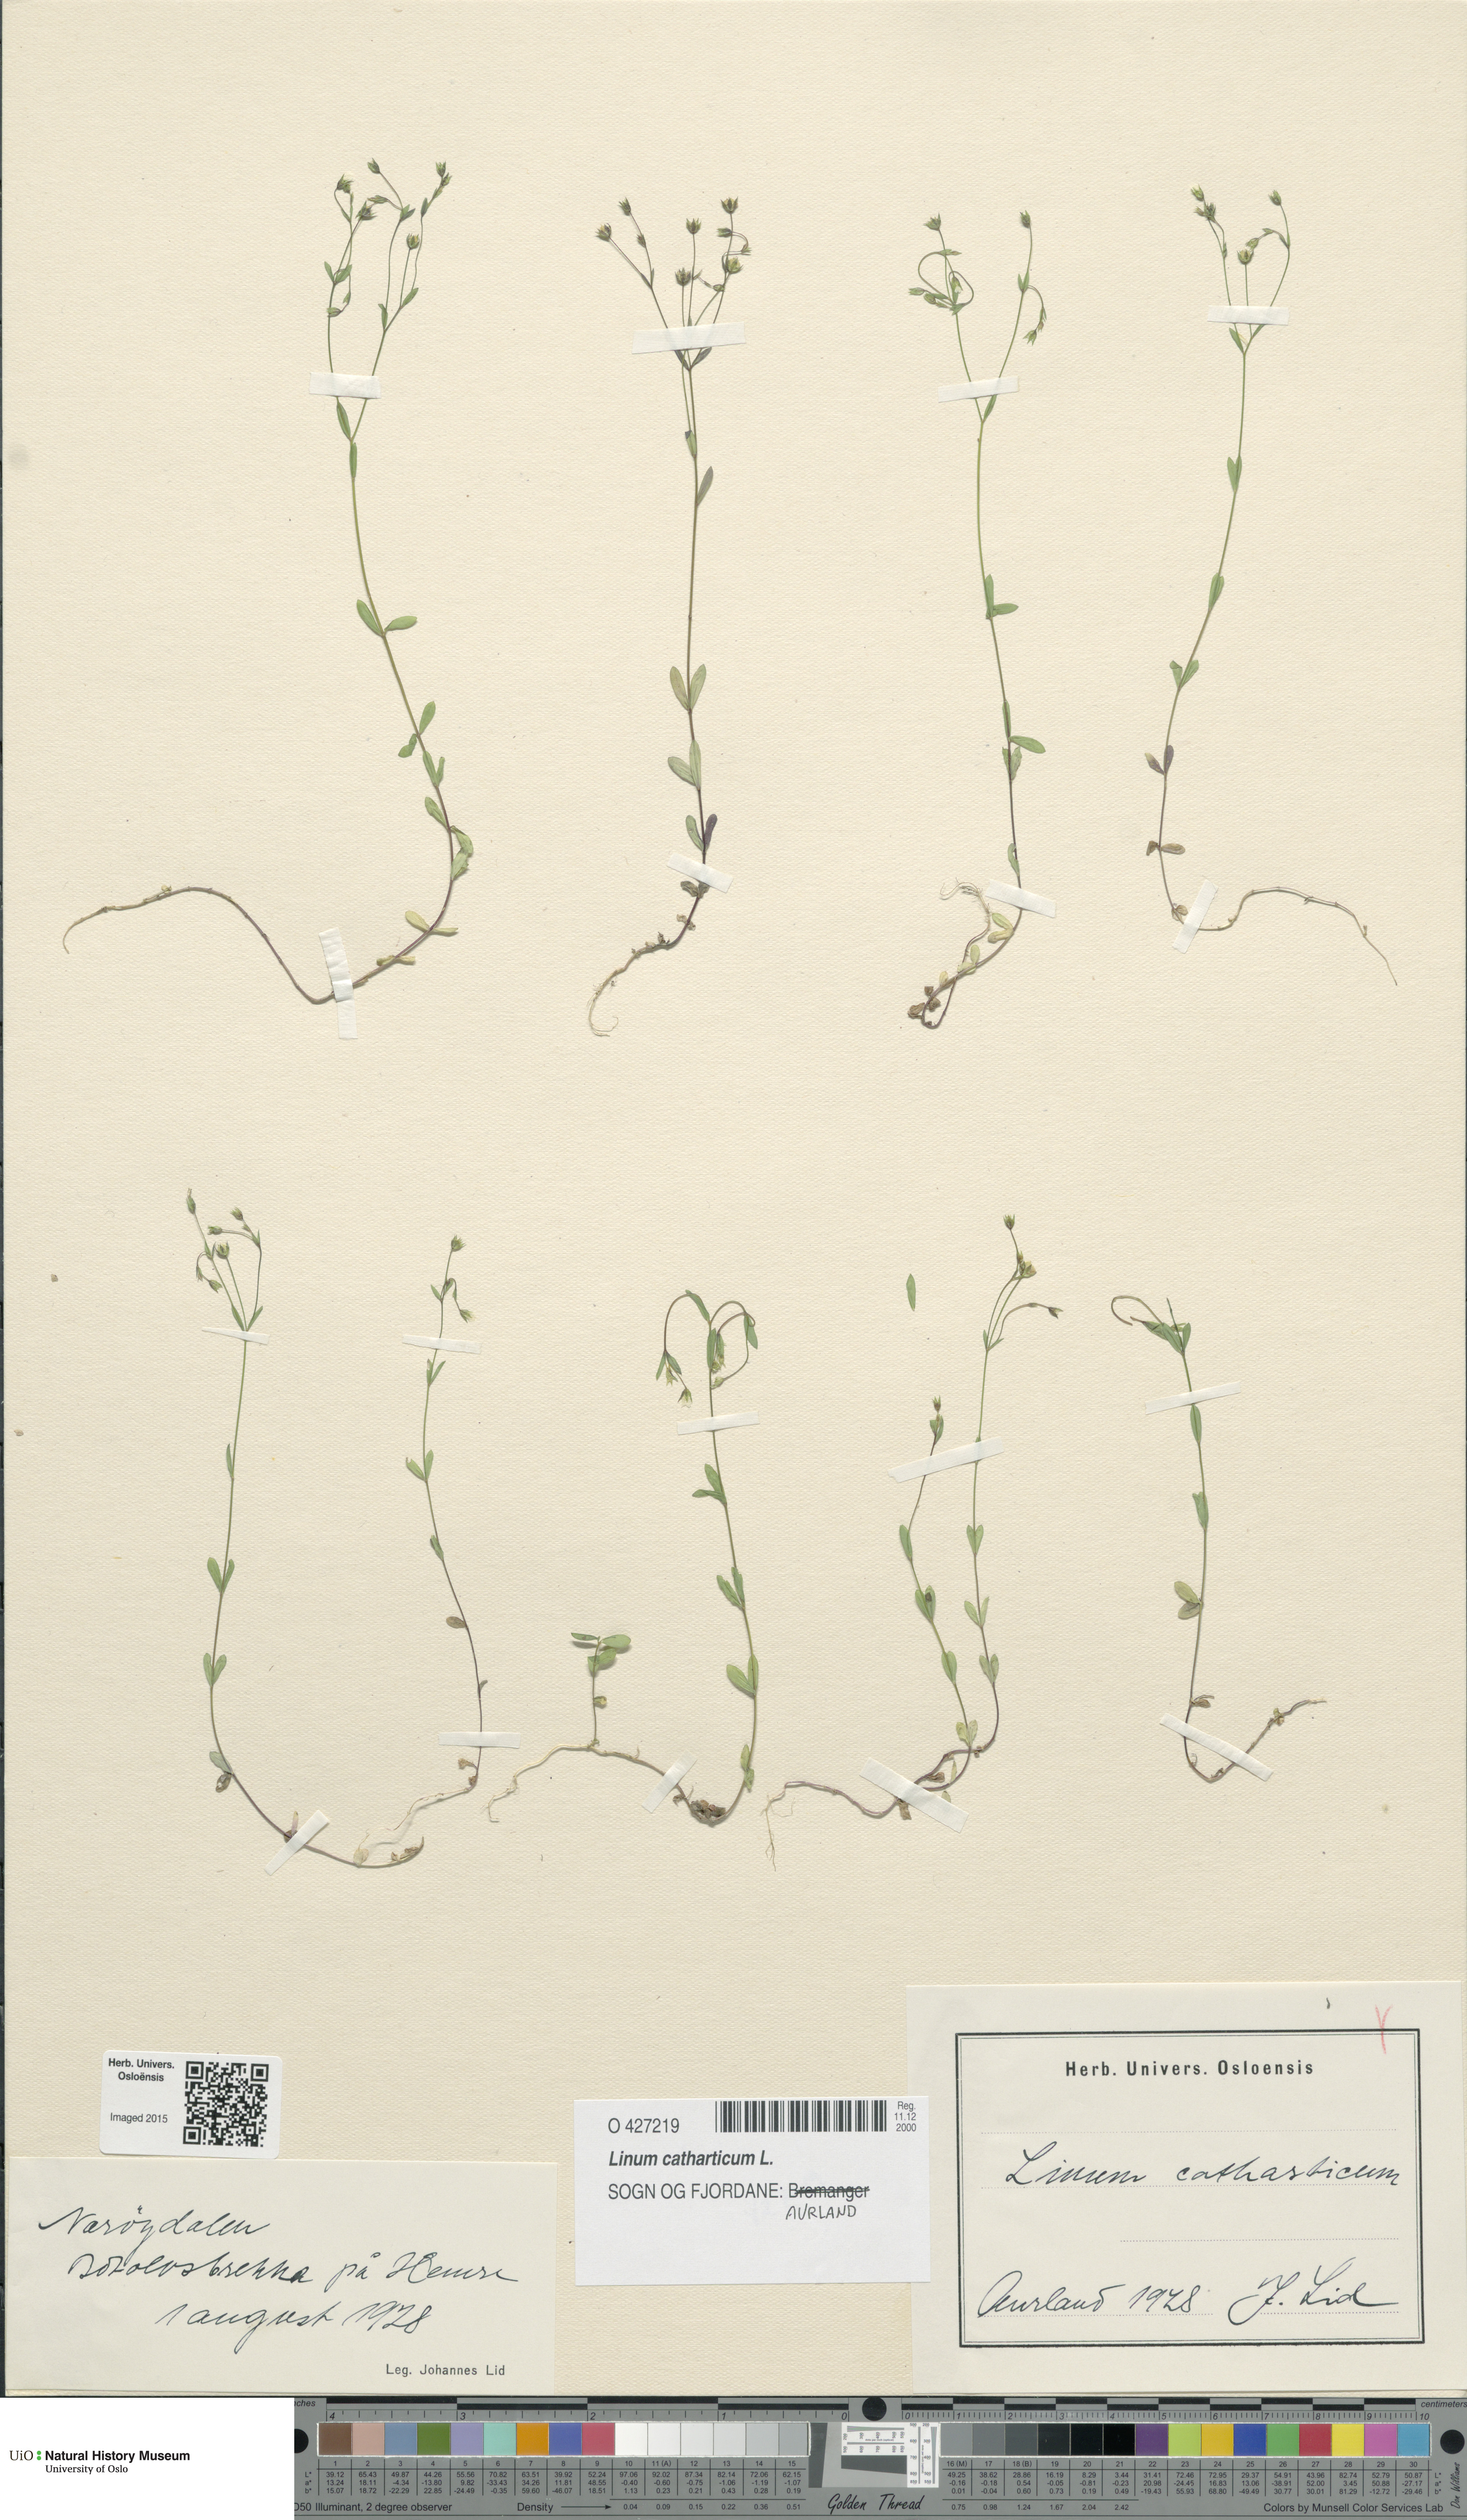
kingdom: Plantae
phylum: Tracheophyta
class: Magnoliopsida
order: Malpighiales
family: Linaceae
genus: Linum
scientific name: Linum catharticum
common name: Fairy flax
